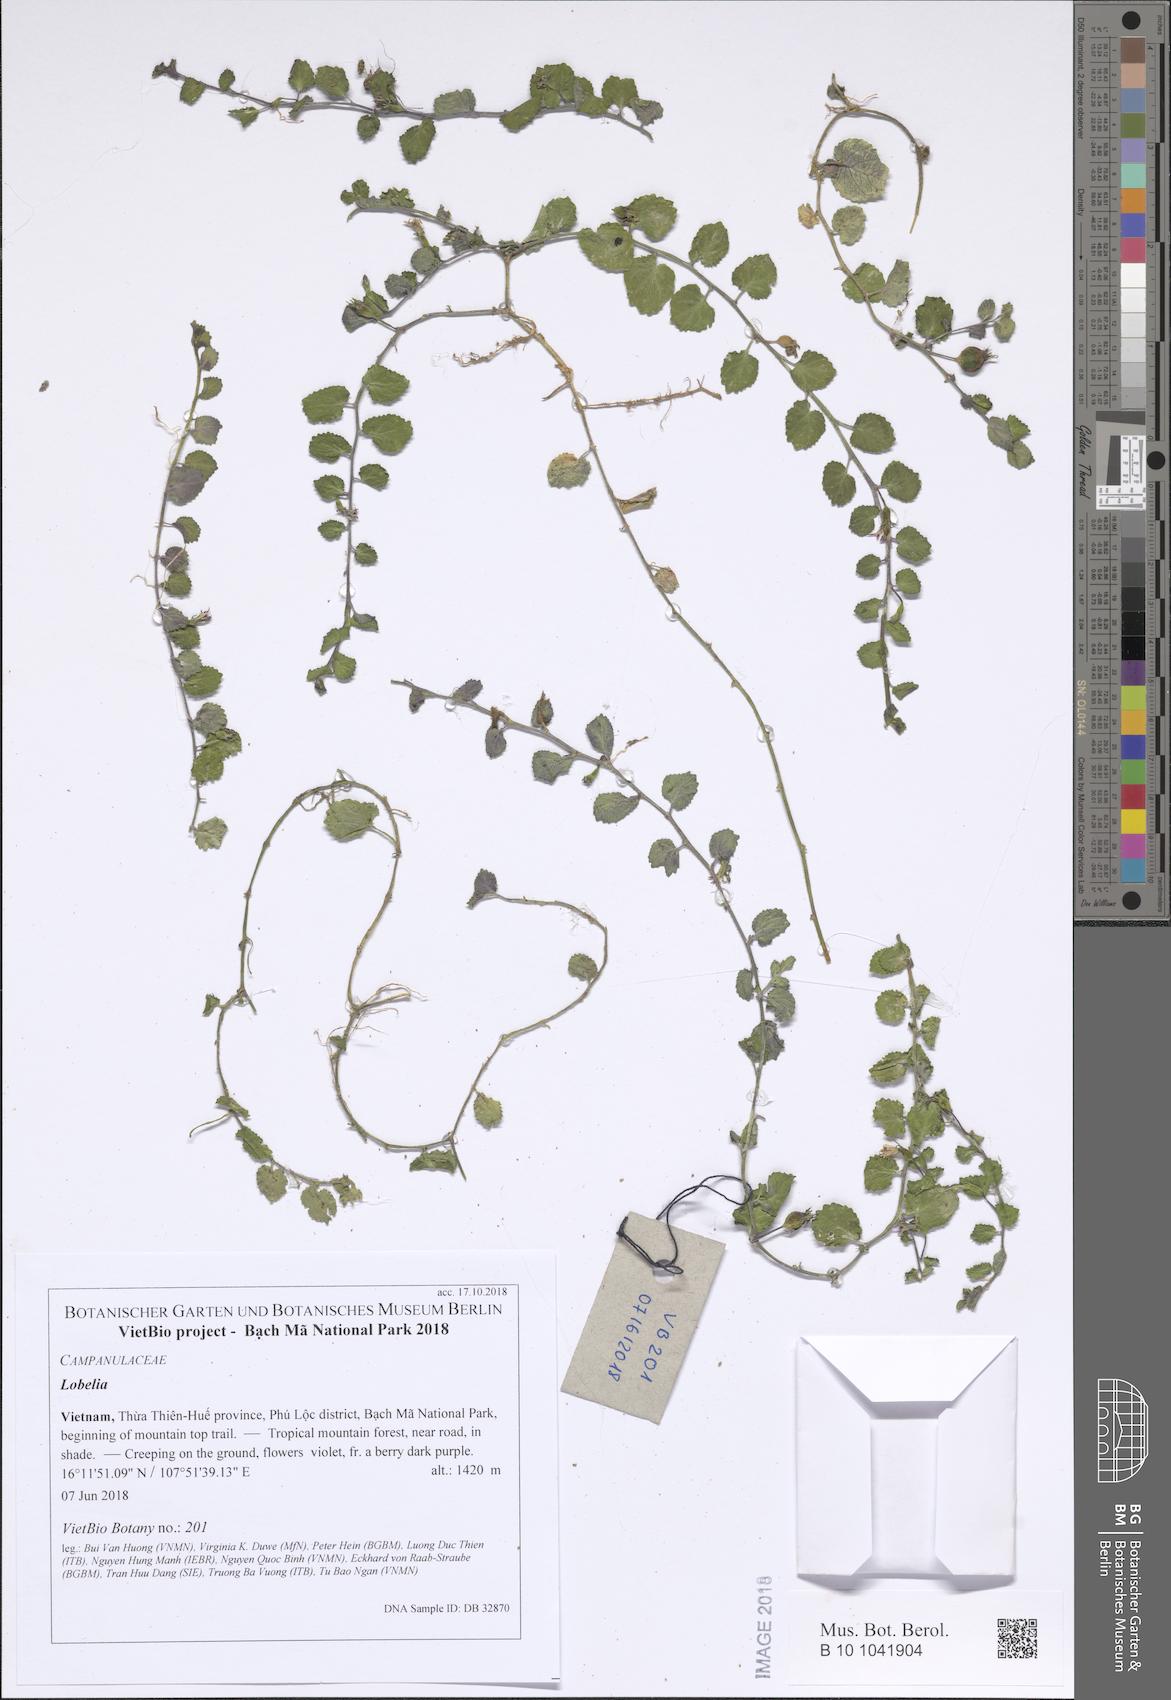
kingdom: Plantae
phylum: Tracheophyta
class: Magnoliopsida
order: Asterales
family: Campanulaceae
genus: Lobelia
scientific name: Lobelia
